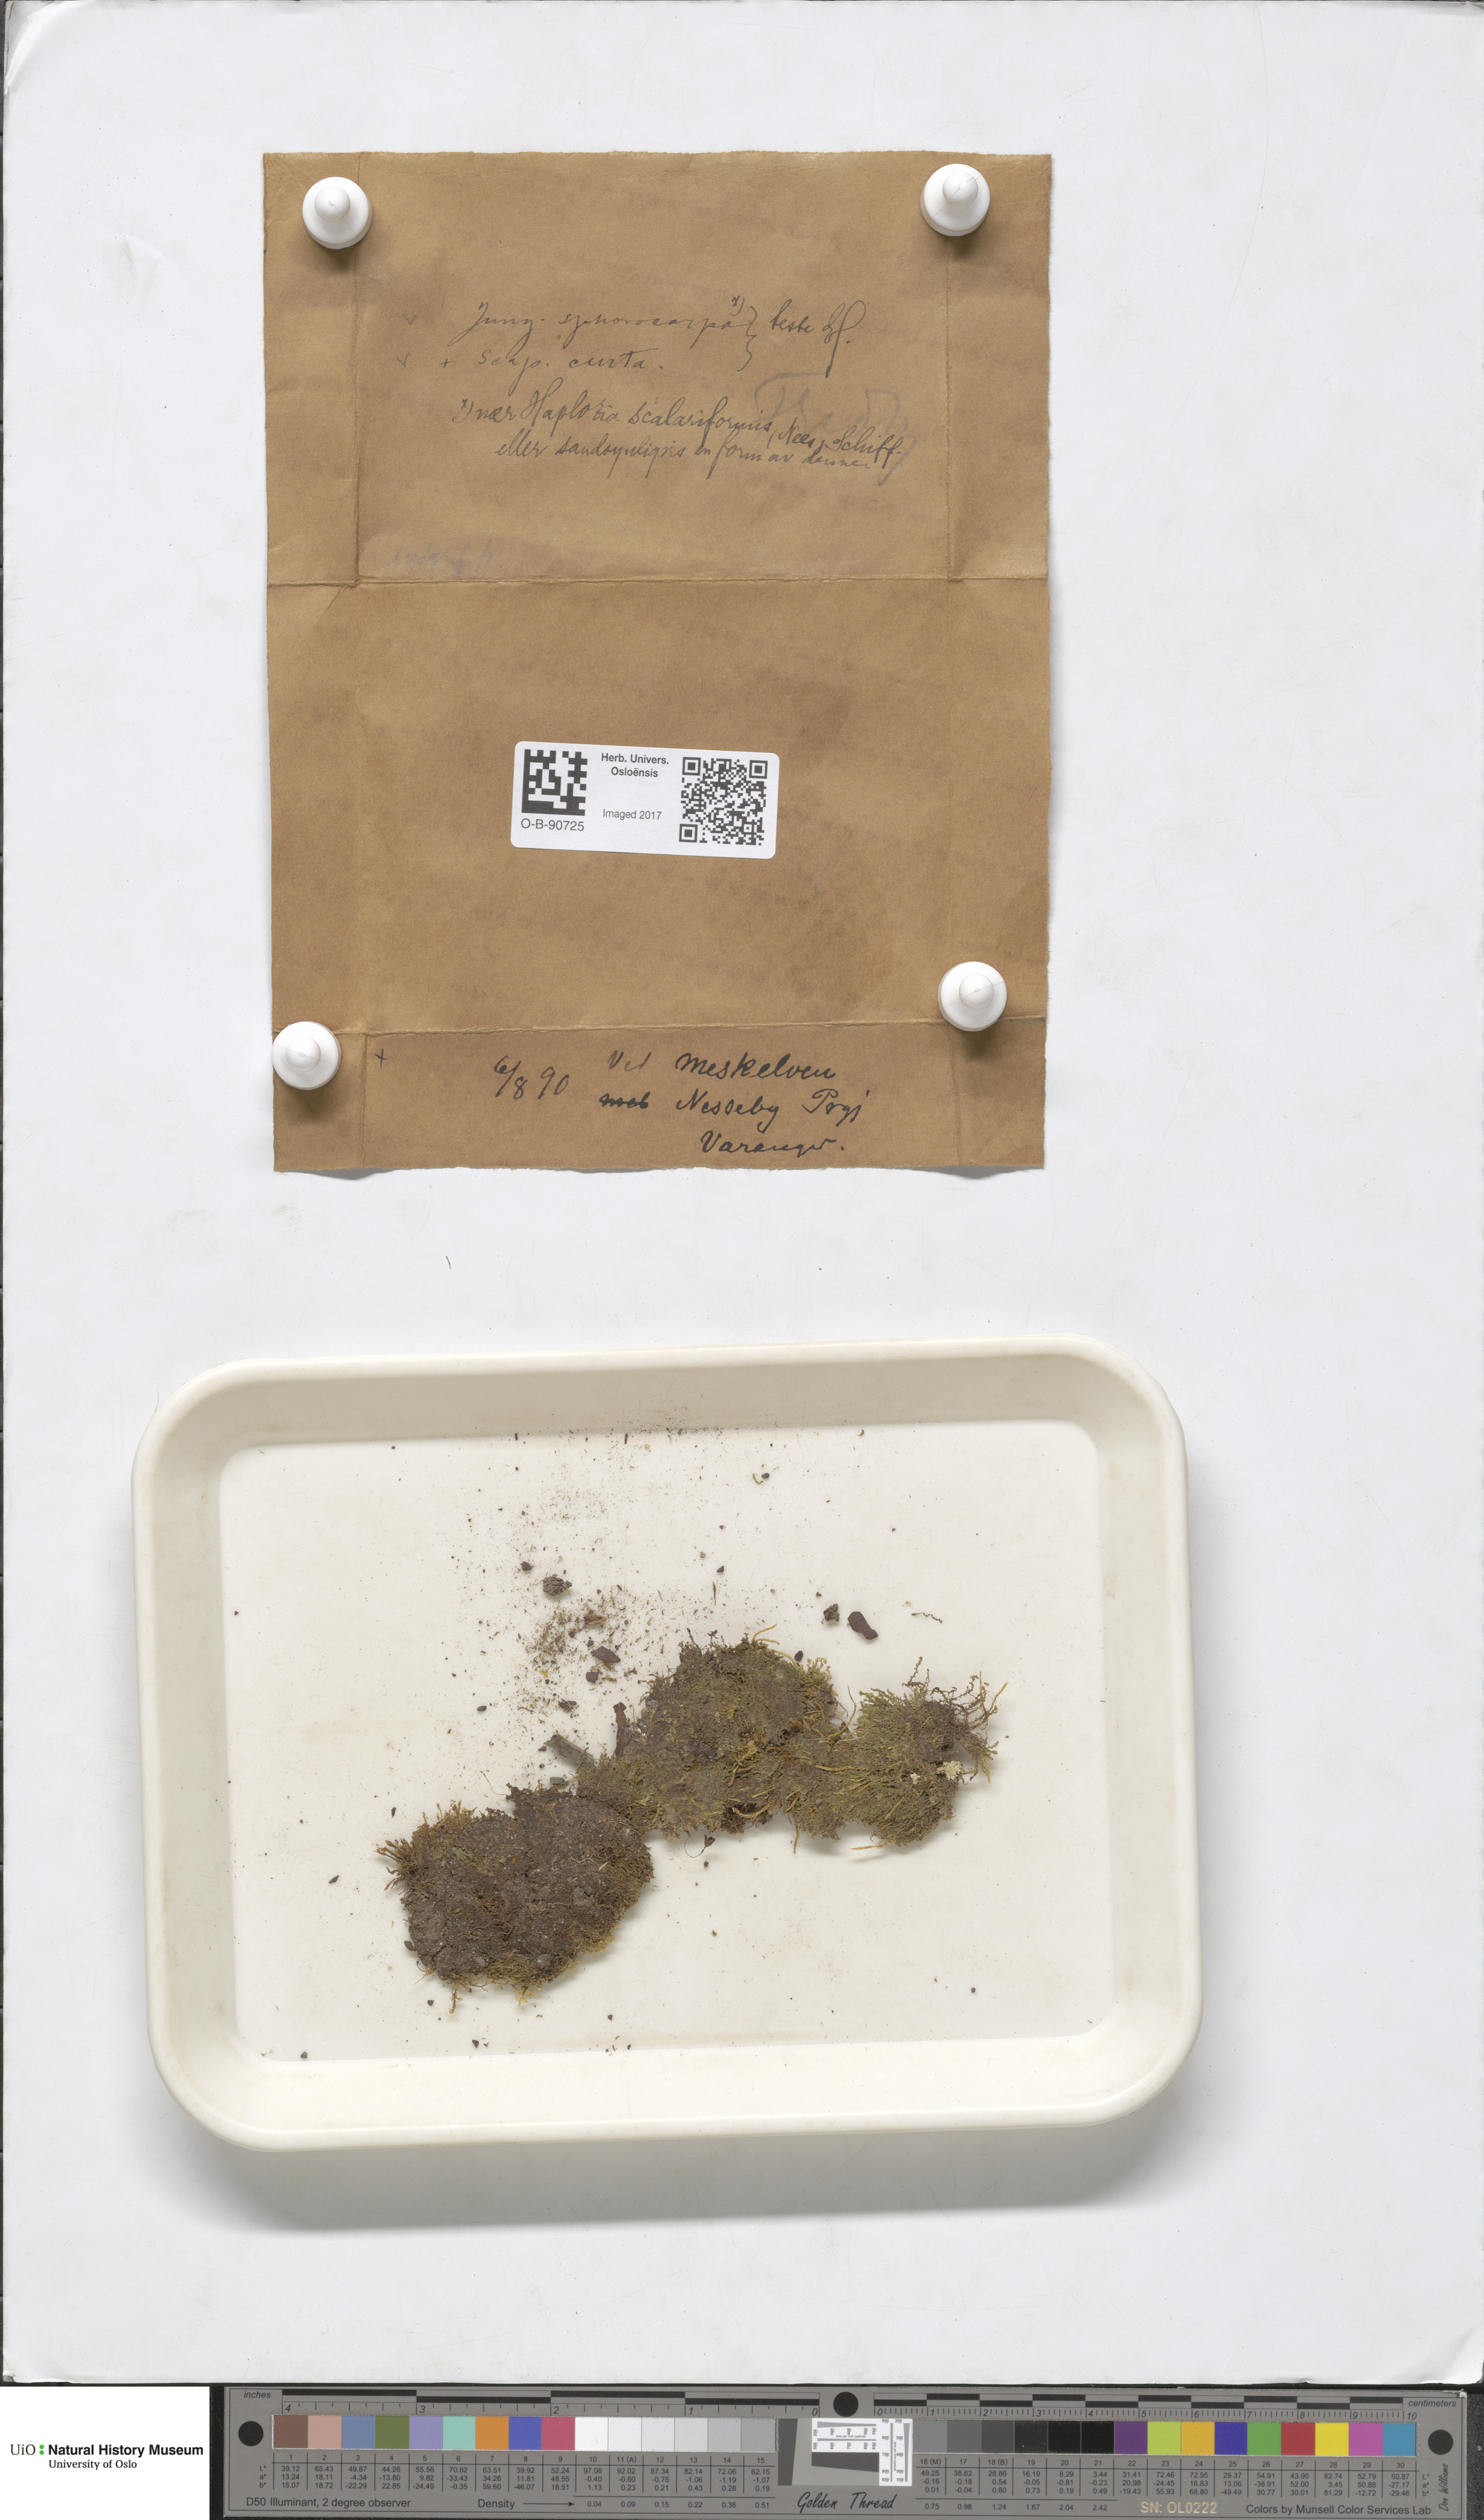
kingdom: Plantae
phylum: Marchantiophyta
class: Jungermanniopsida
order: Jungermanniales
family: Solenostomataceae
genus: Solenostoma
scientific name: Solenostoma sphaerocarpum
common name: Round-fruited flapwort
